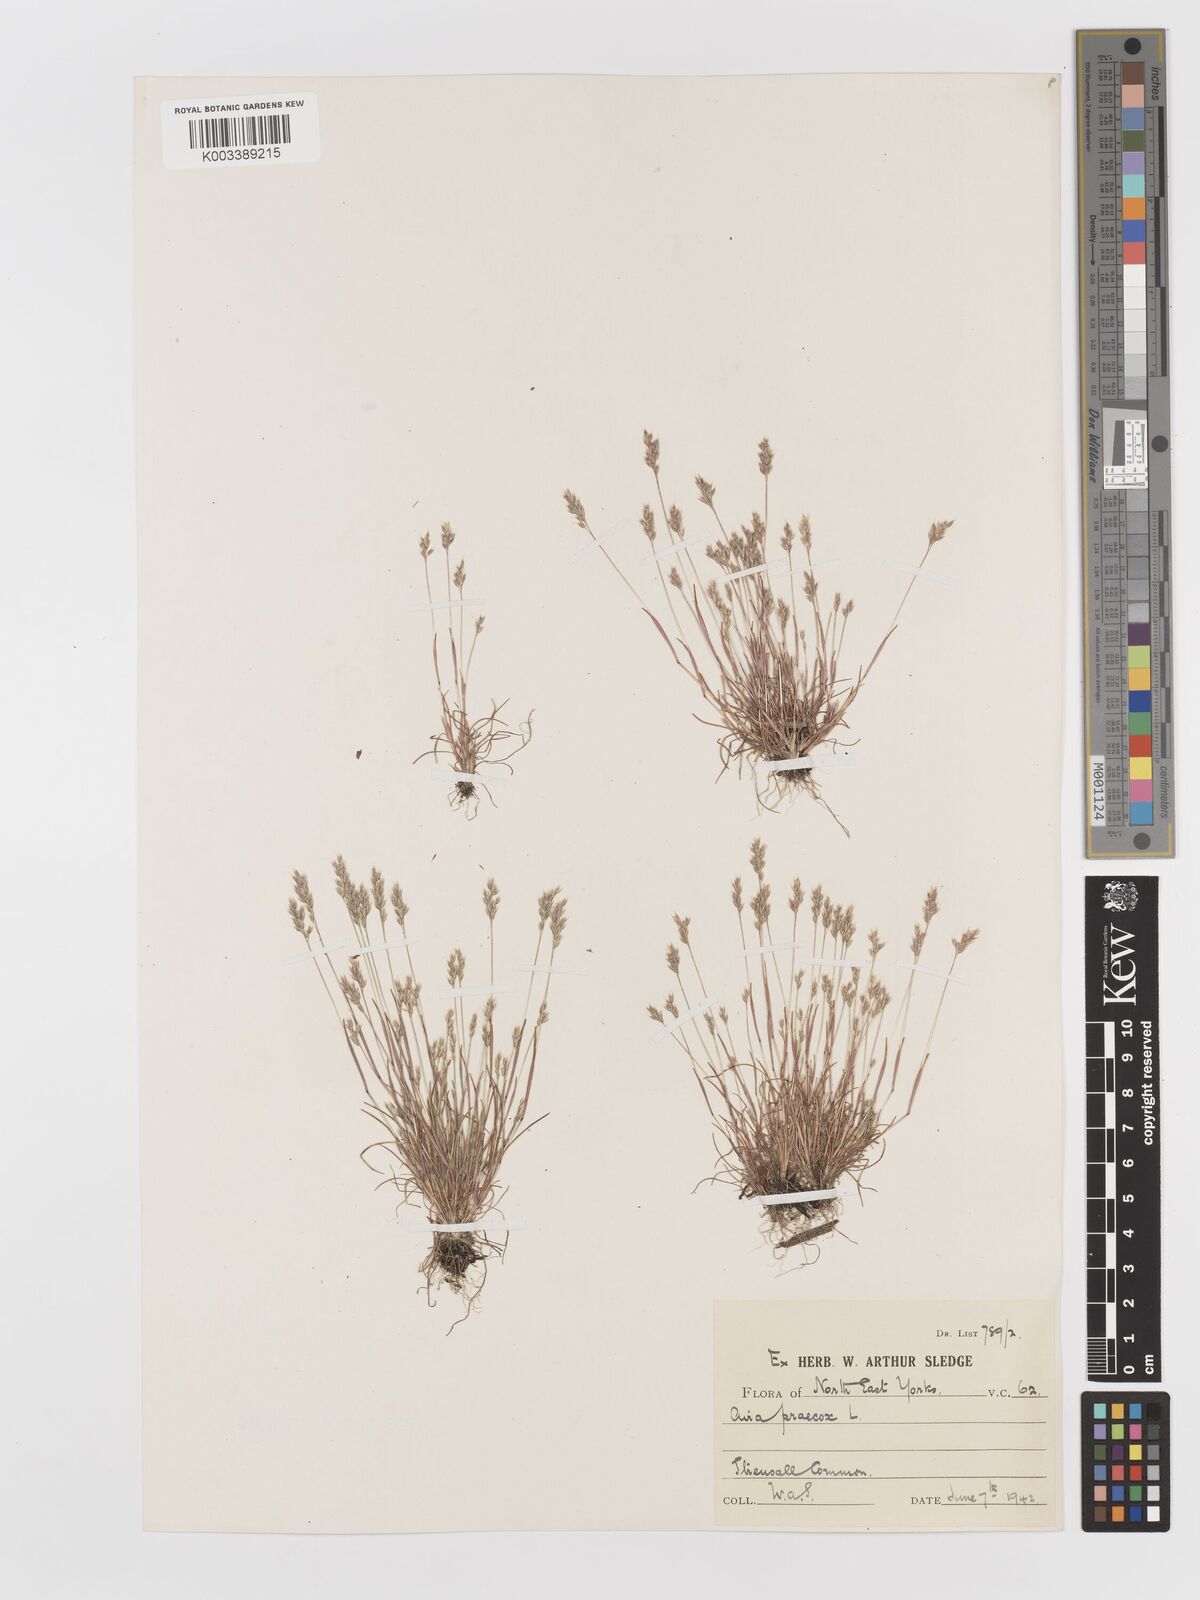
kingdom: Plantae
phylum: Tracheophyta
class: Liliopsida
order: Poales
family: Poaceae
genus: Aira
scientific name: Aira praecox
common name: Early hair-grass
